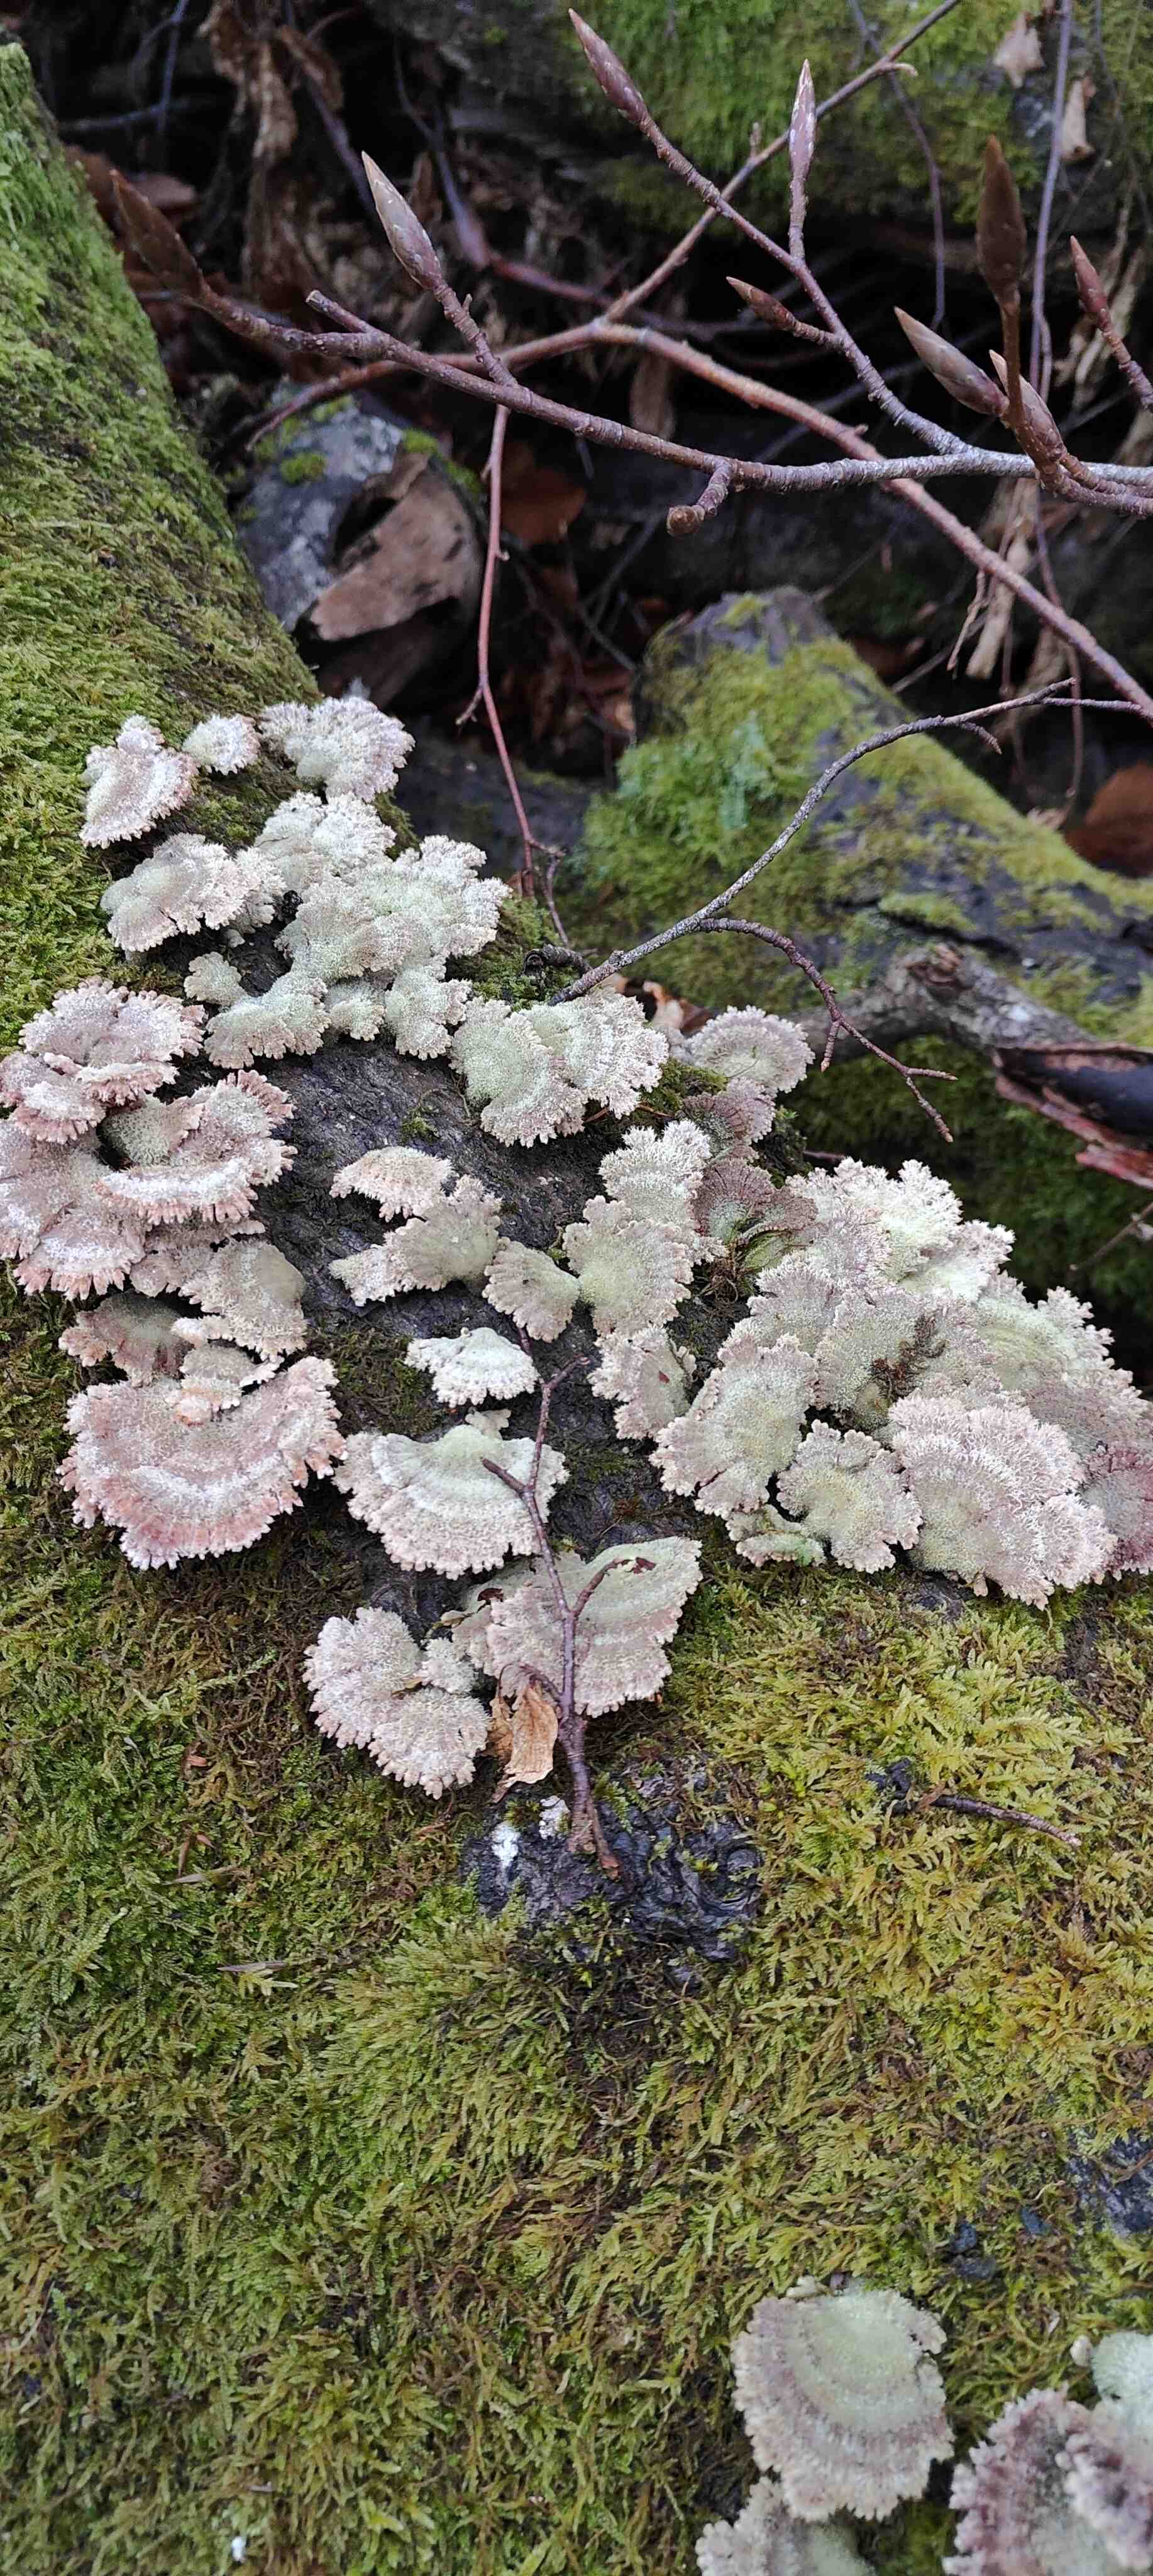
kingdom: Fungi
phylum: Basidiomycota
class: Agaricomycetes
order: Agaricales
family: Schizophyllaceae
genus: Schizophyllum
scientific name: Schizophyllum commune
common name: kløvblad
